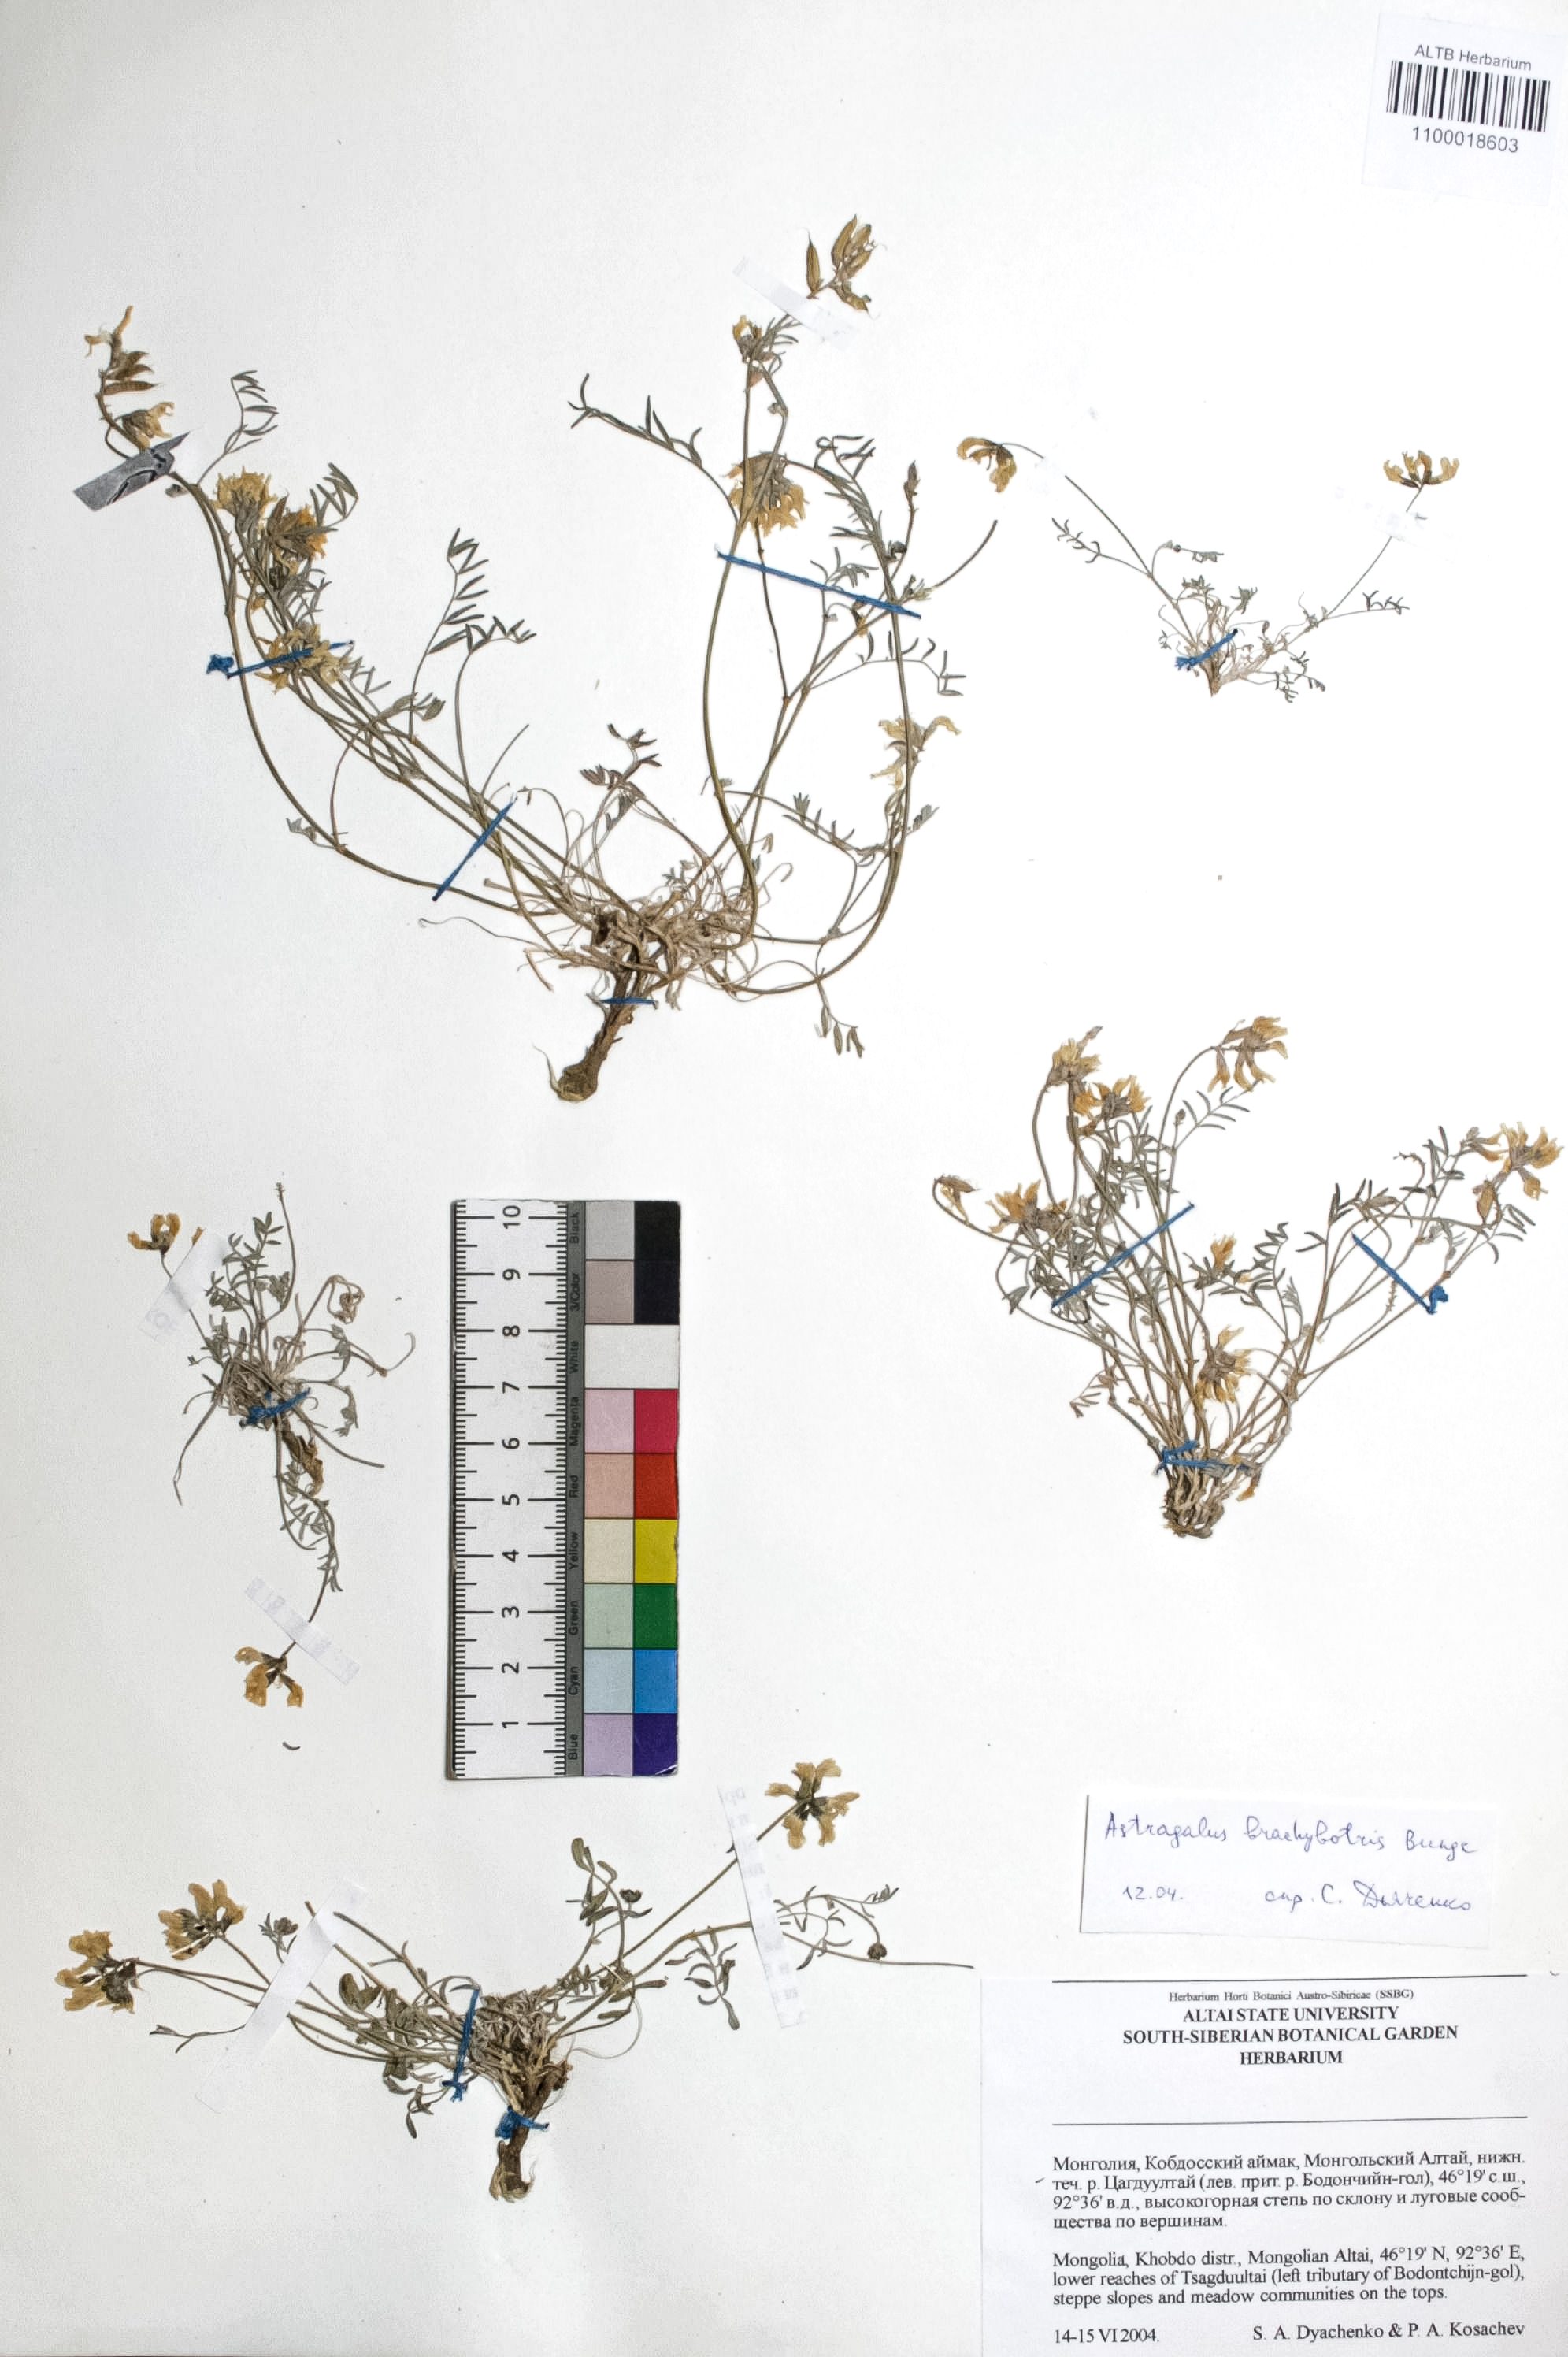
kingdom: Plantae
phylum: Tracheophyta
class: Magnoliopsida
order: Fabales
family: Fabaceae
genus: Astragalus
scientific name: Astragalus brachybotrys
